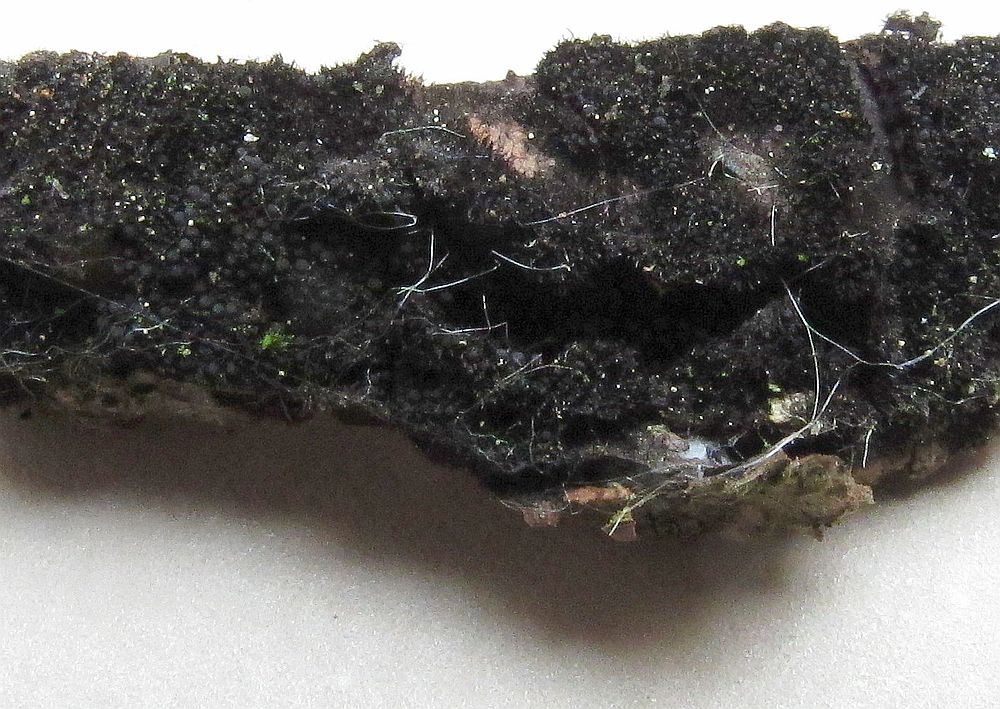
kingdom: Fungi
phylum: Ascomycota
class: Sordariomycetes
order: Coronophorales
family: Chaetosphaerellaceae
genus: Chaetosphaerella
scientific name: Chaetosphaerella phaeostroma
